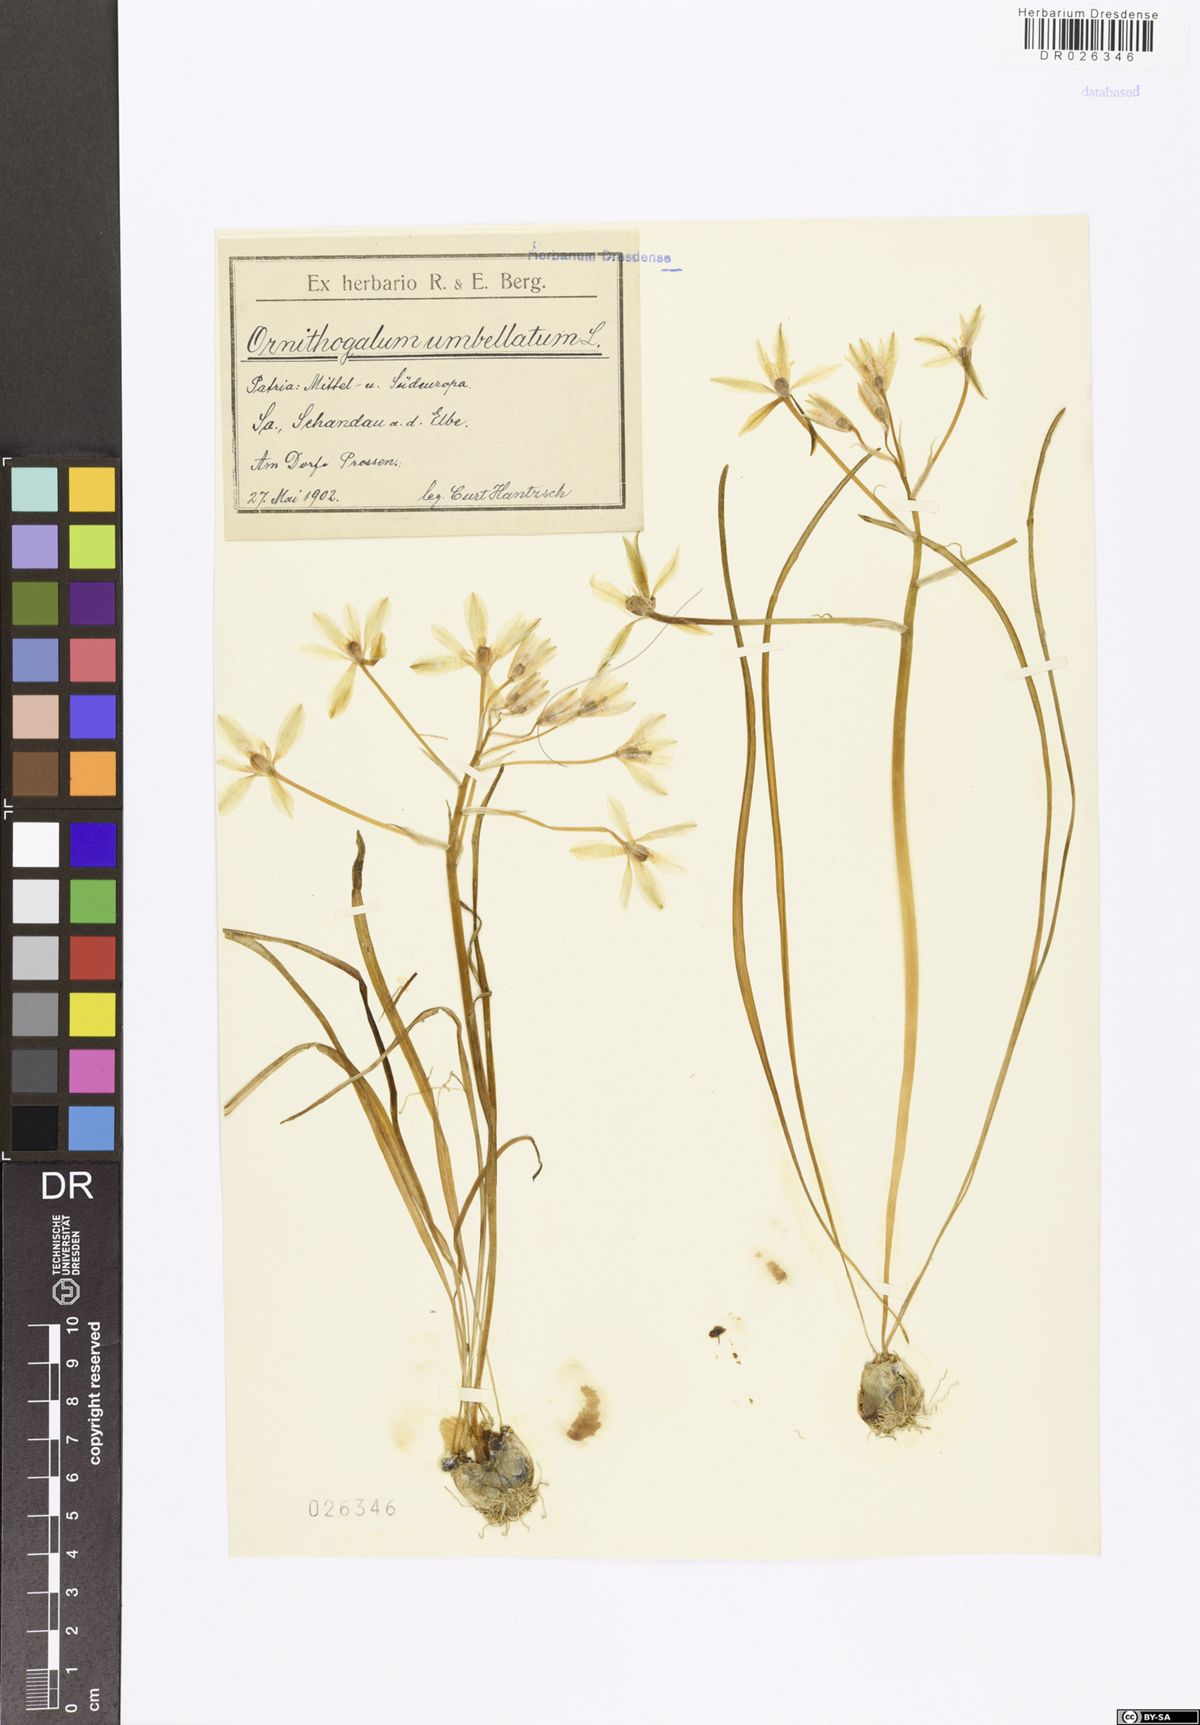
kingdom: Plantae
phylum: Tracheophyta
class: Liliopsida
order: Asparagales
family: Asparagaceae
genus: Ornithogalum
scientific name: Ornithogalum umbellatum
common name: Garden star-of-bethlehem
